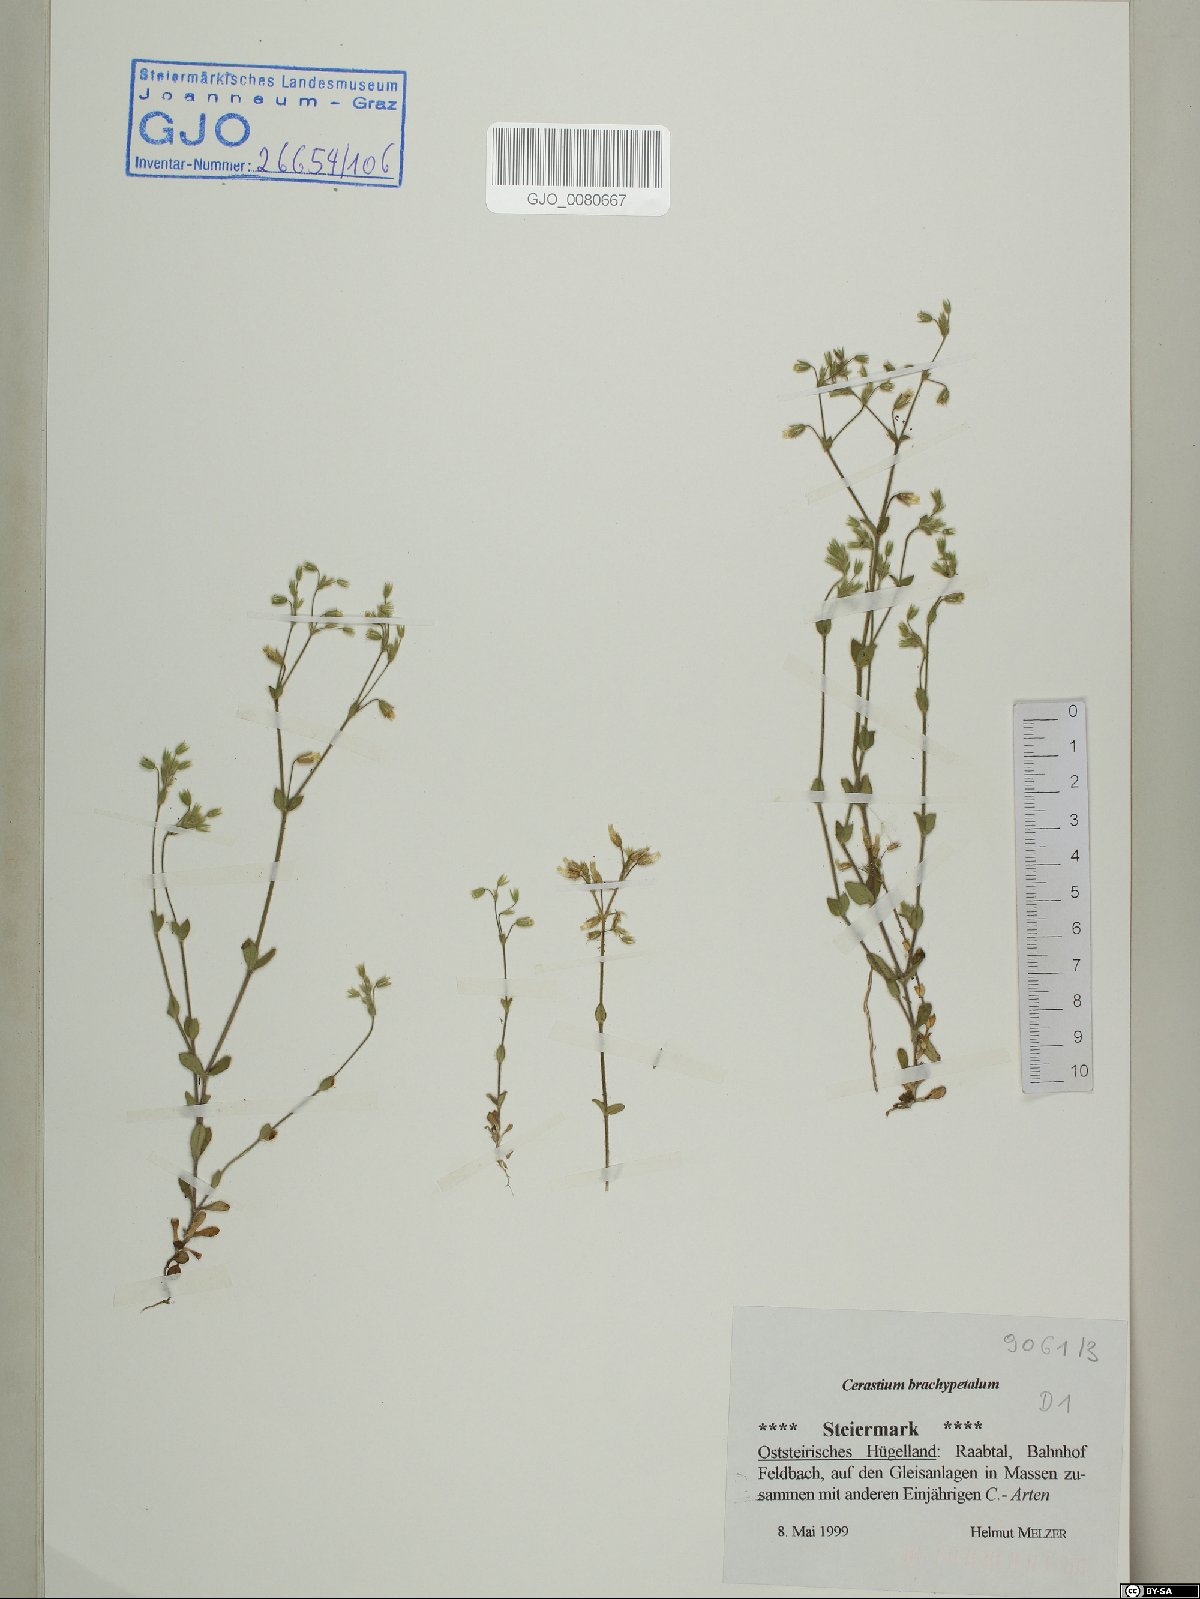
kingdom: Plantae
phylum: Tracheophyta
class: Magnoliopsida
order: Caryophyllales
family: Caryophyllaceae
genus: Cerastium
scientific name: Cerastium brachypetalum
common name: Grey mouse-ear
